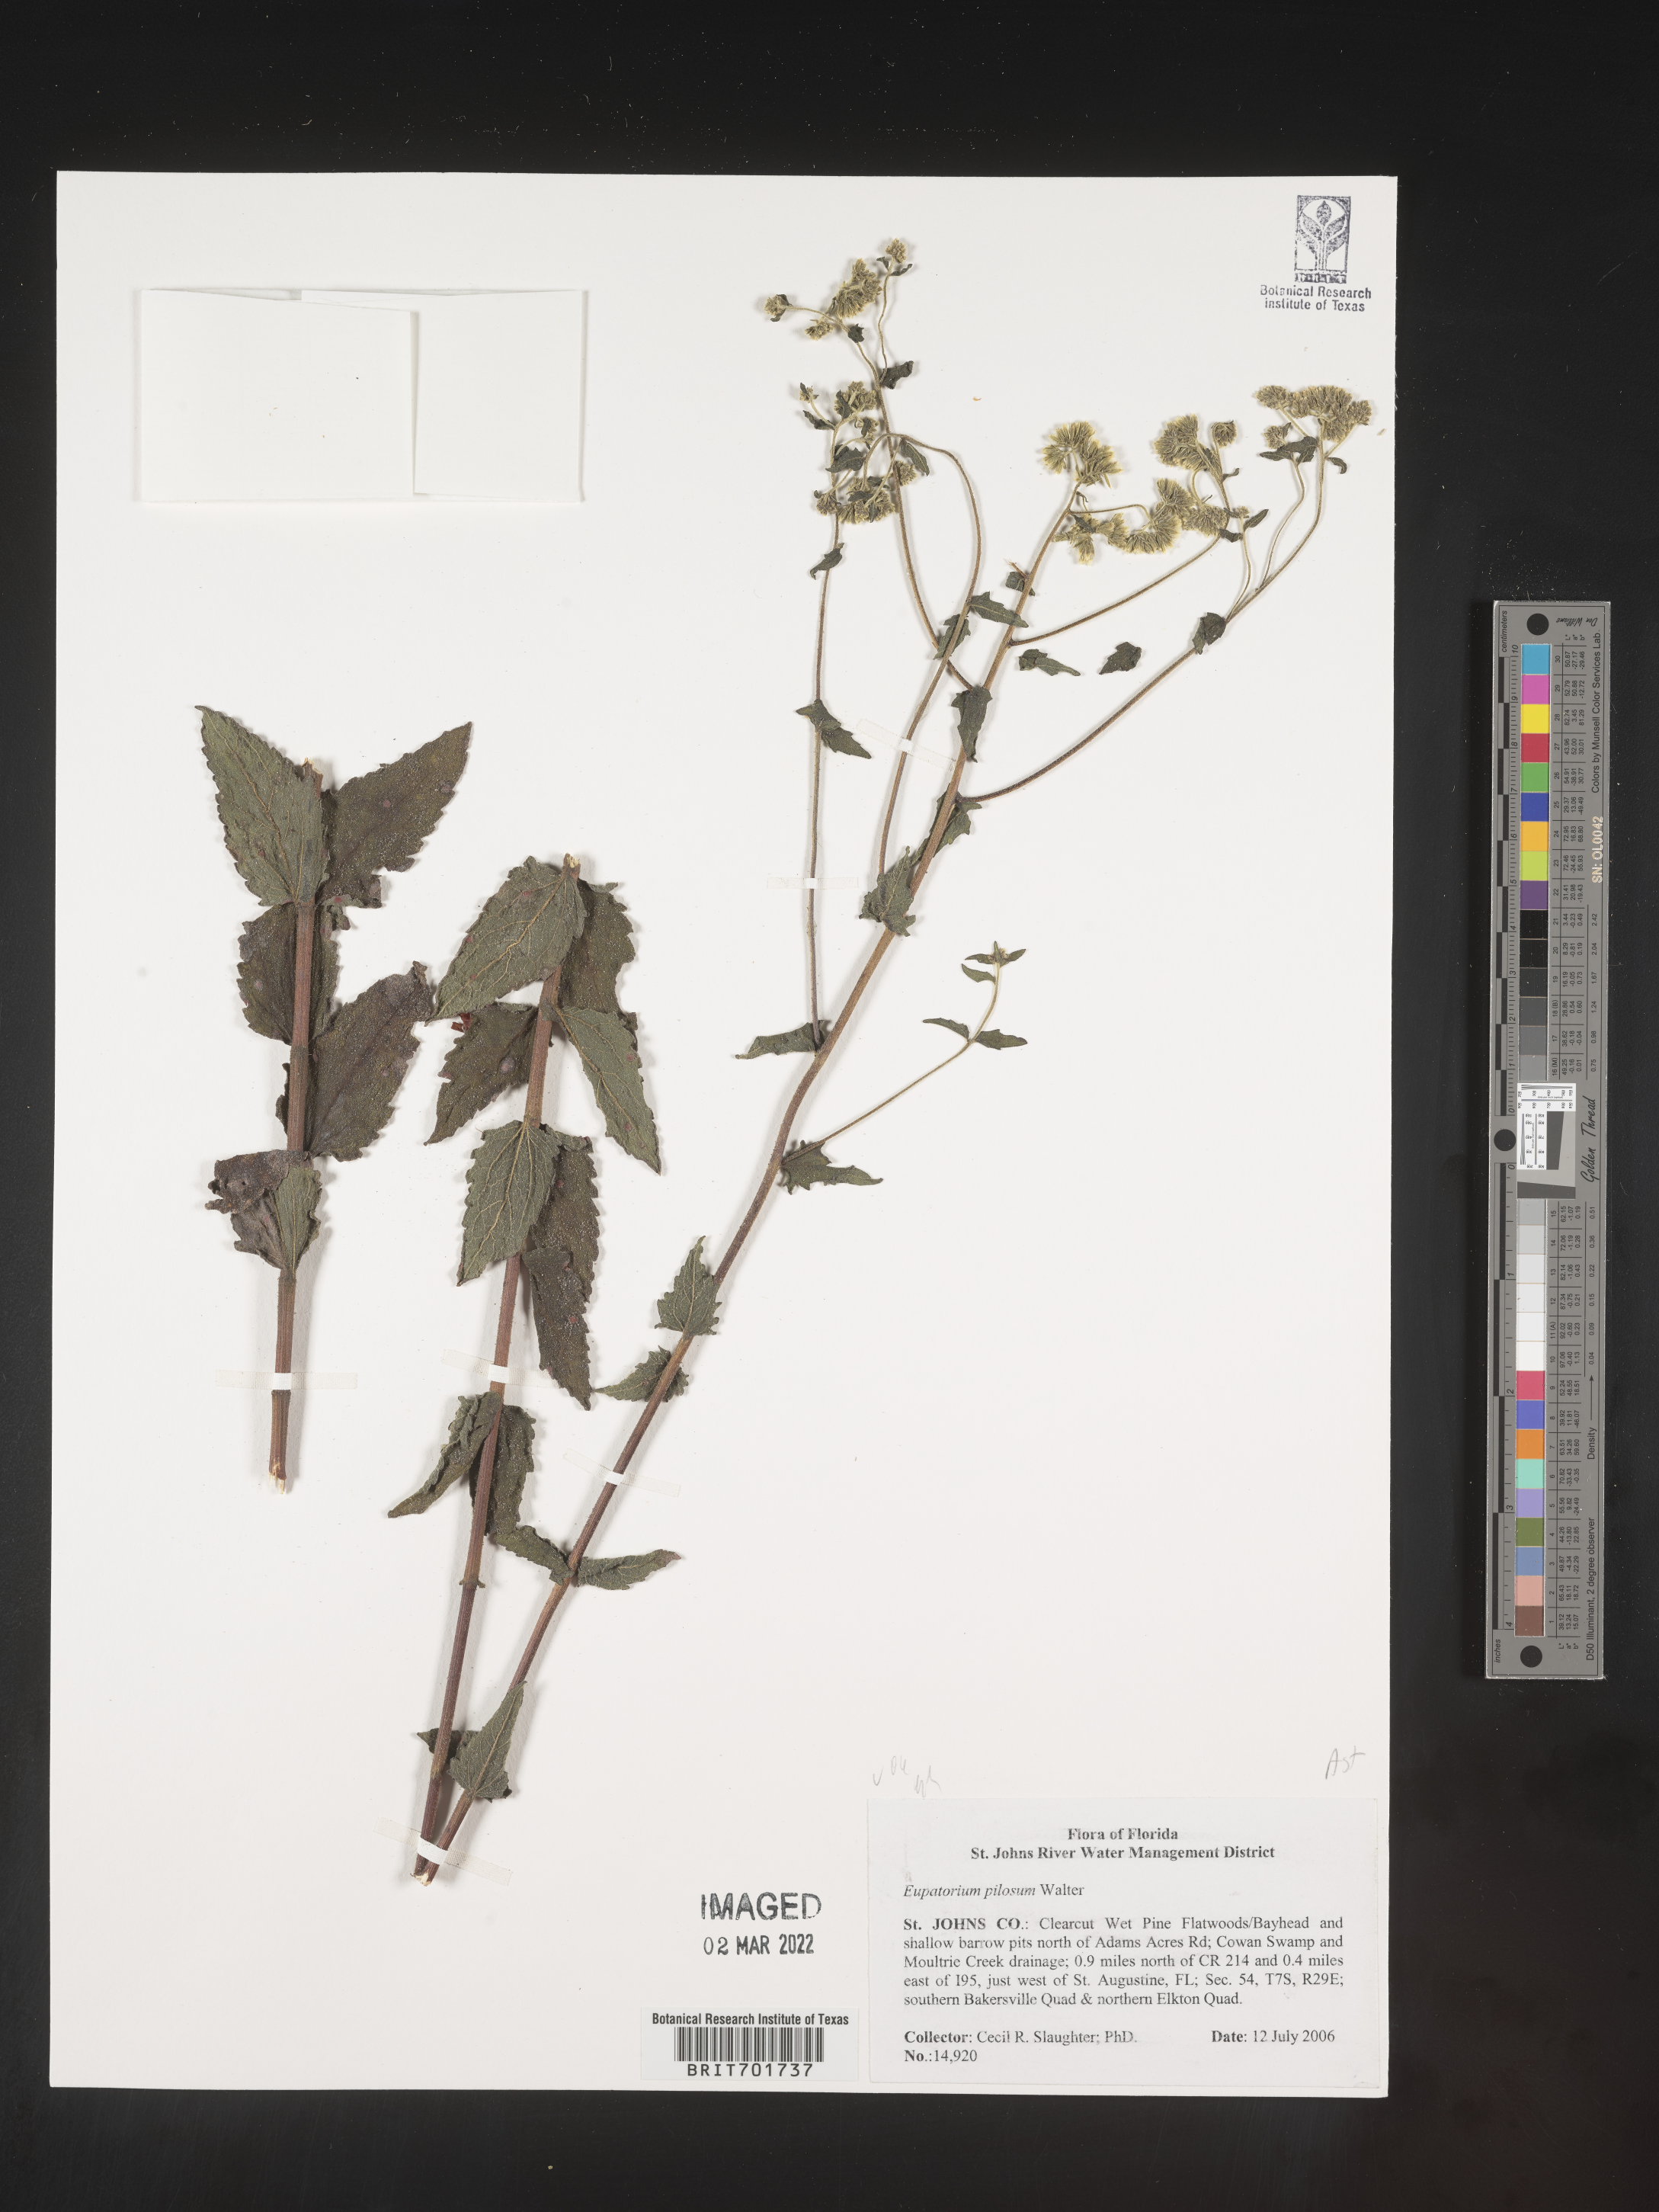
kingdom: Plantae
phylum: Tracheophyta
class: Magnoliopsida
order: Asterales
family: Asteraceae
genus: Eupatorium
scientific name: Eupatorium pilosum
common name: Rough boneset
